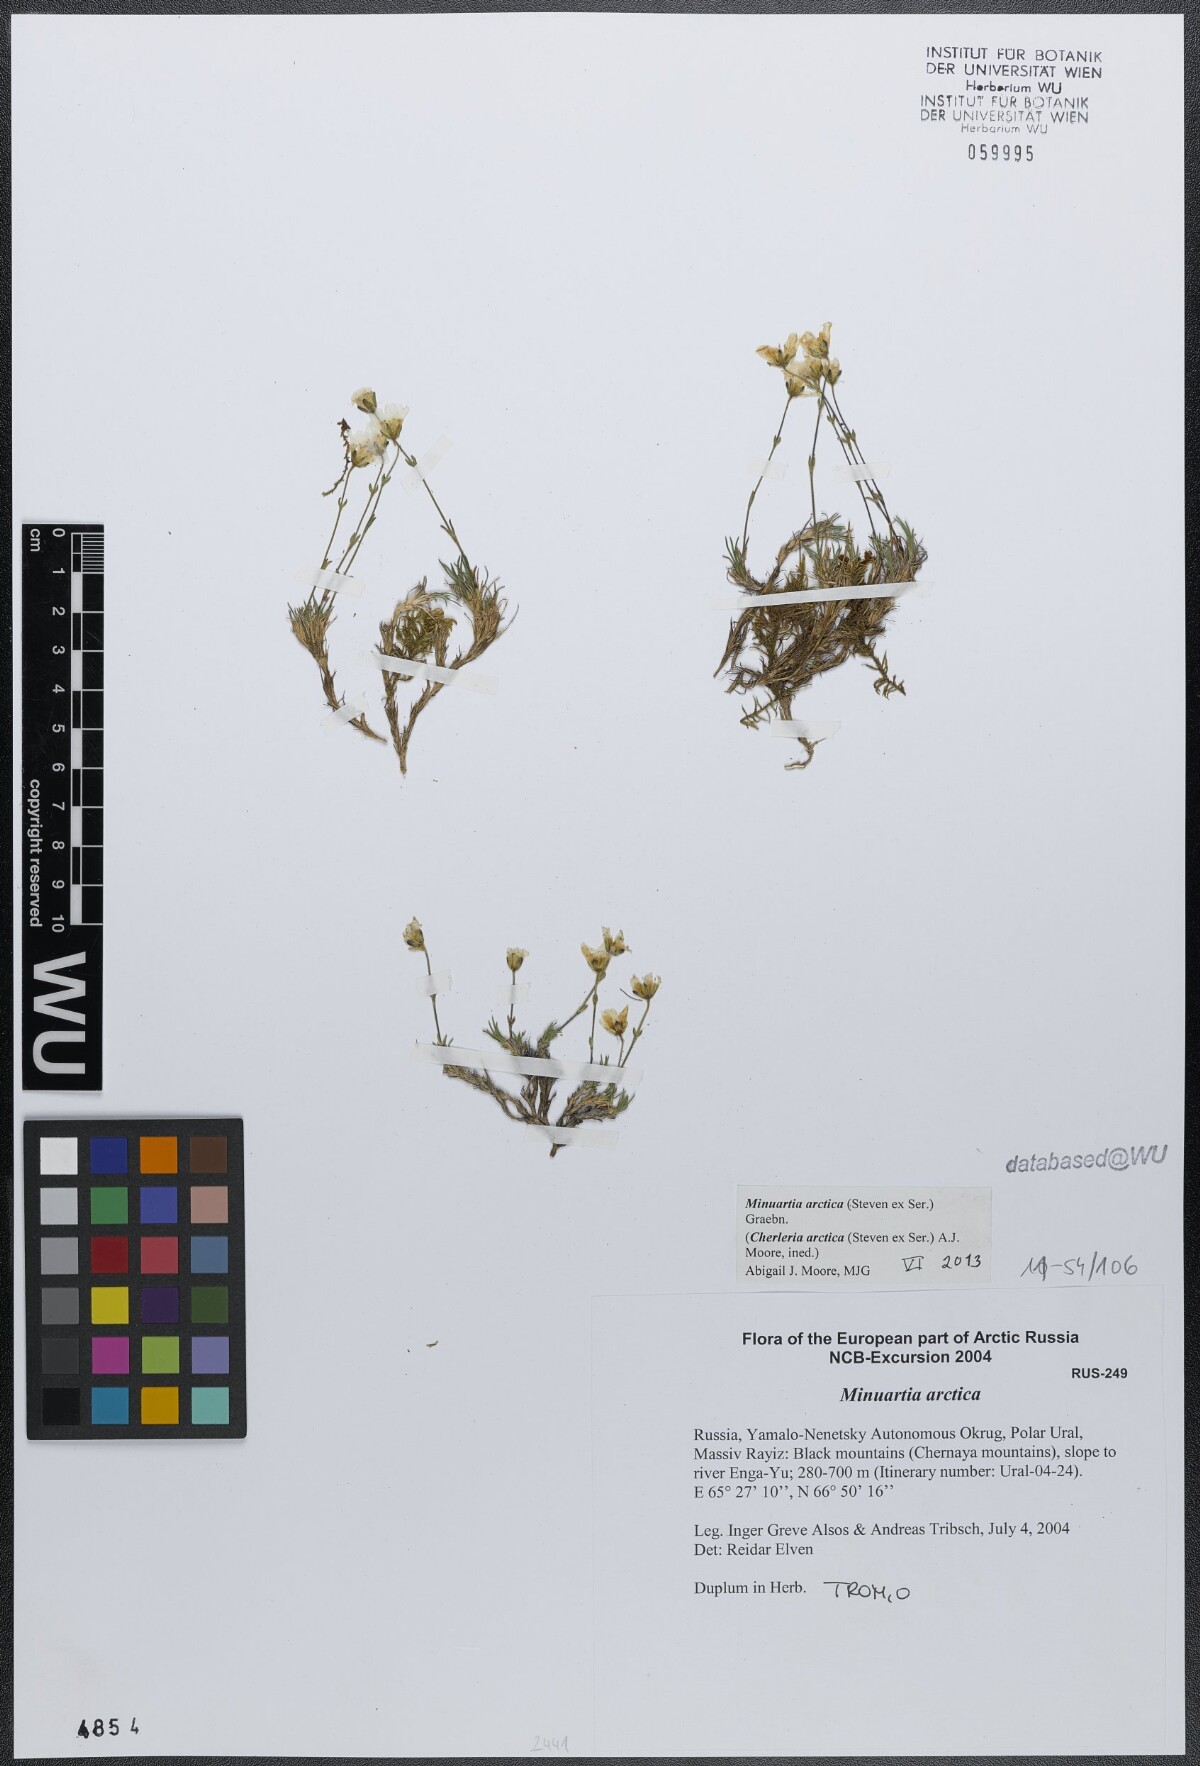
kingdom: Plantae
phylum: Tracheophyta
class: Magnoliopsida
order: Caryophyllales
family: Caryophyllaceae
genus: Cherleria
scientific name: Cherleria arctica
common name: Arctic sandwort
